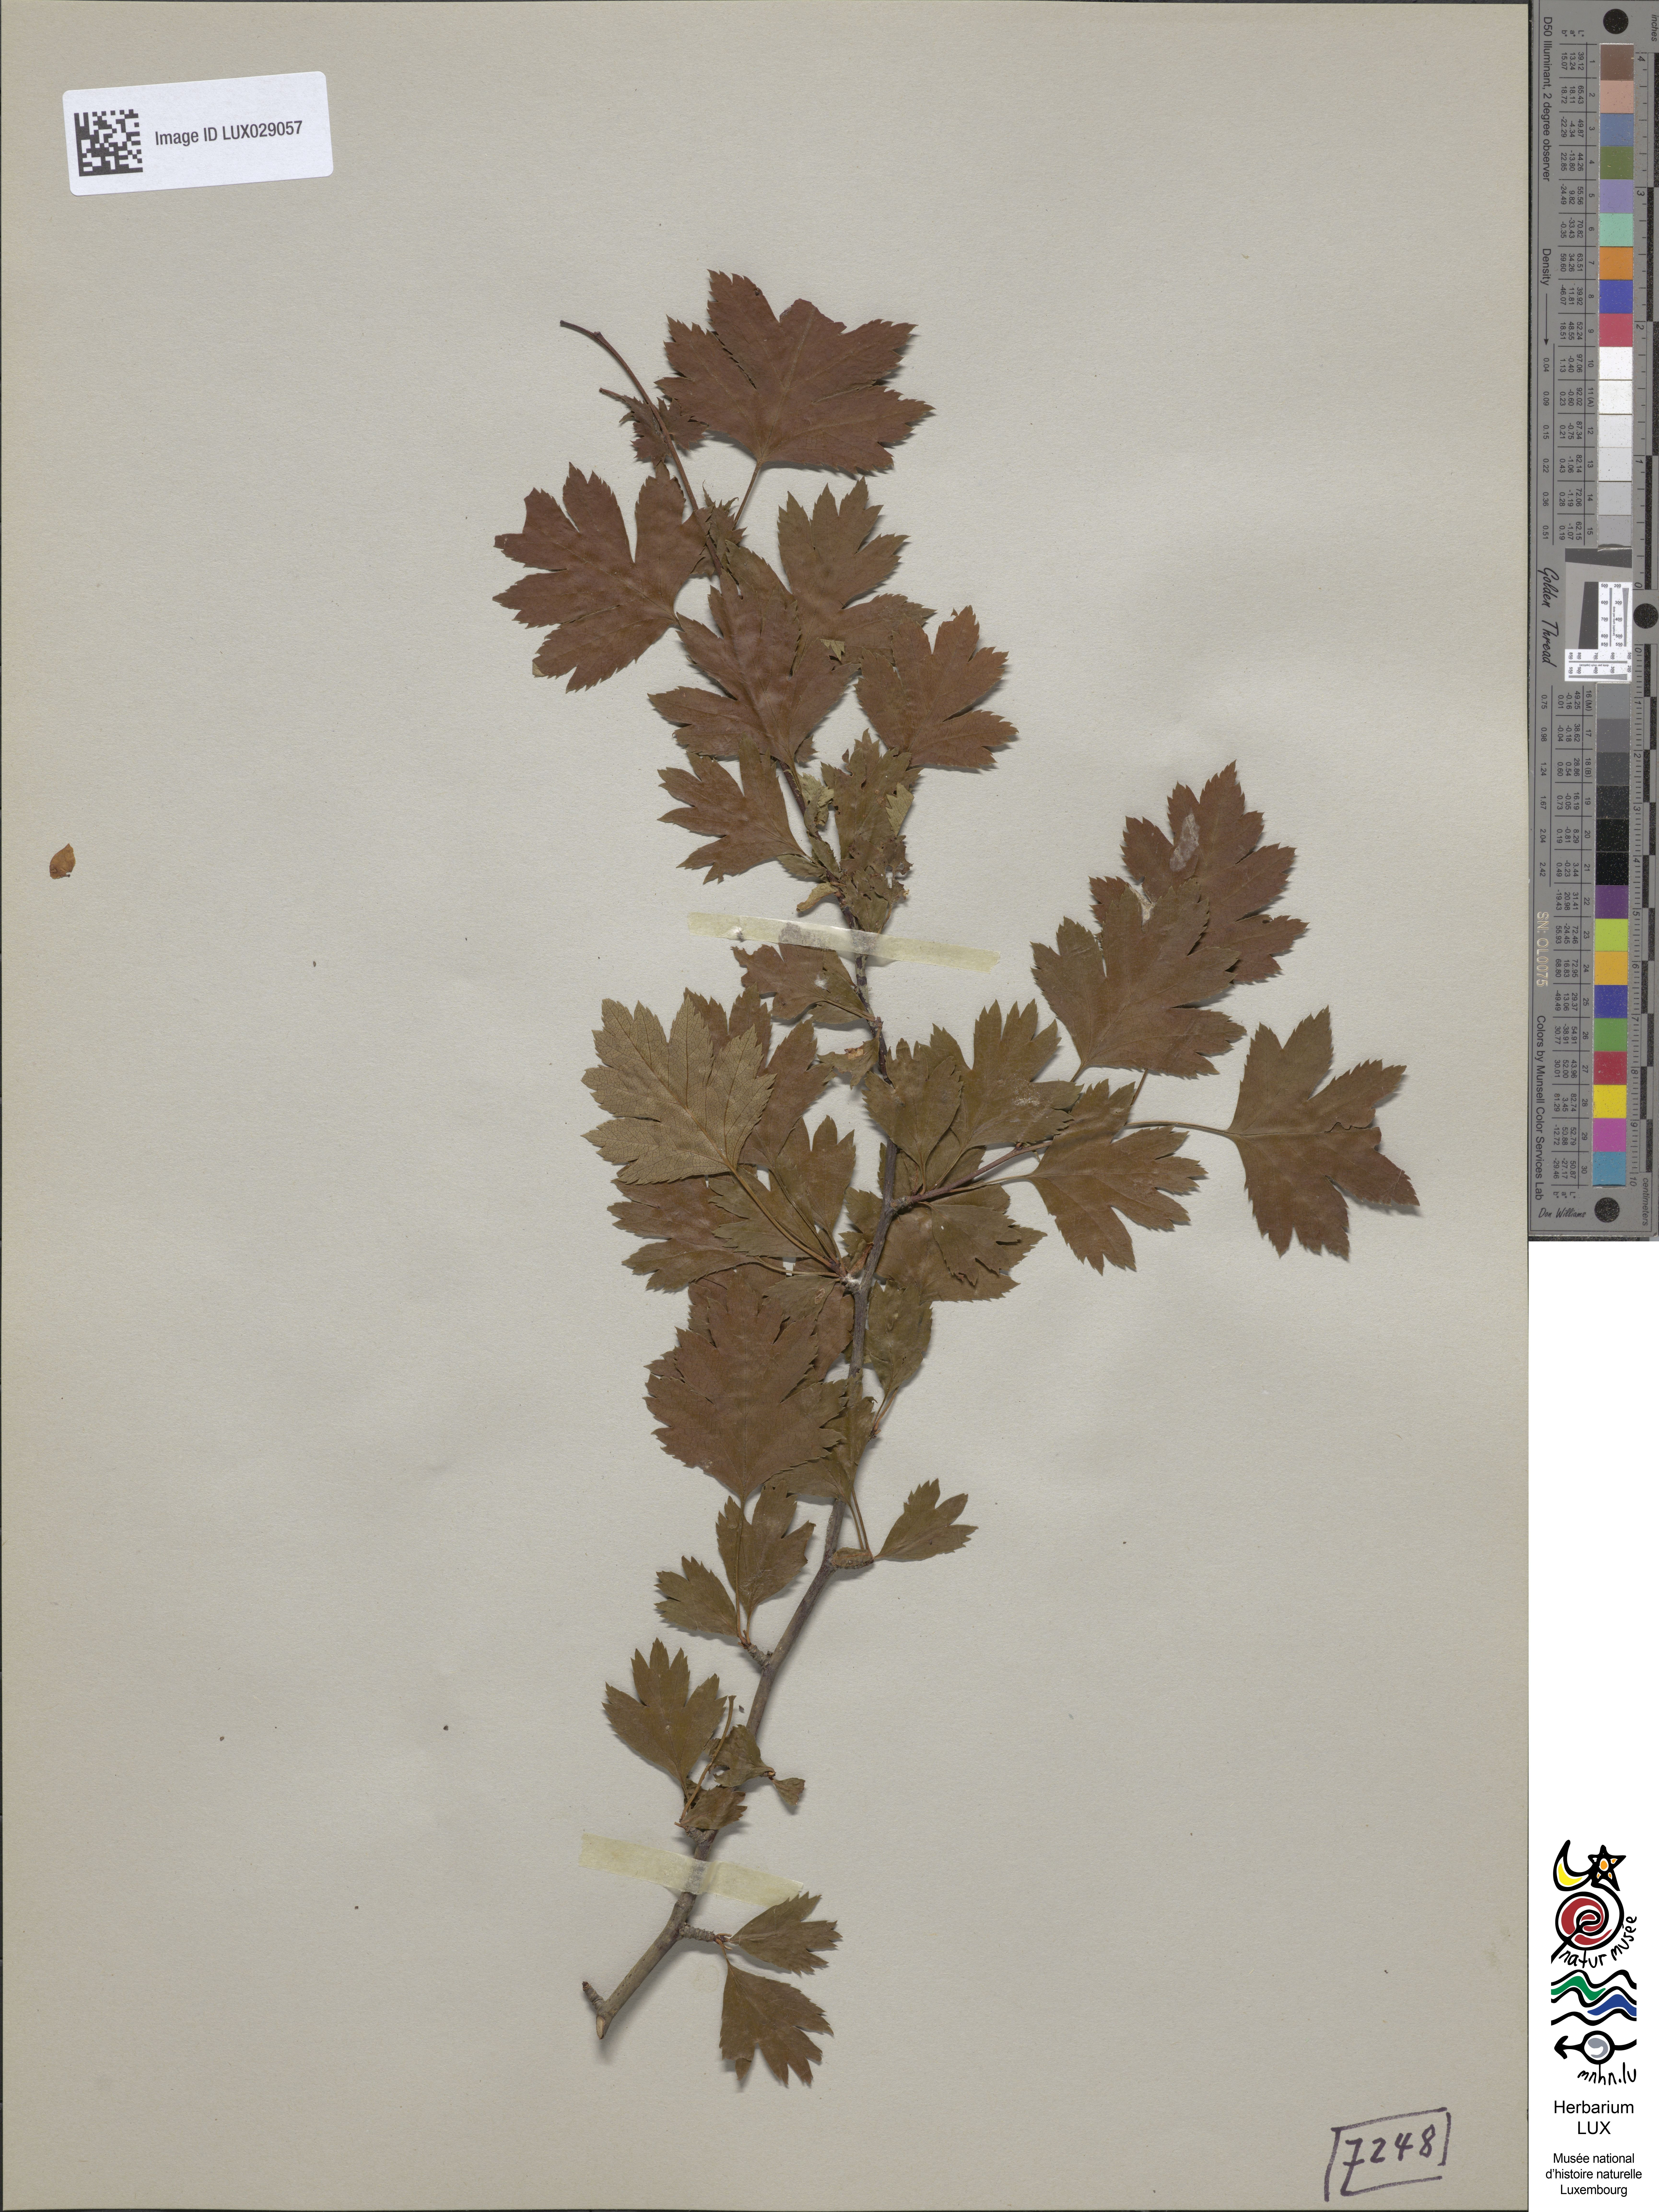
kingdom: Plantae
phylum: Tracheophyta
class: Magnoliopsida
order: Rosales
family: Rosaceae
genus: Crataegus
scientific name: Crataegus monogyna
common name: Hawthorn
